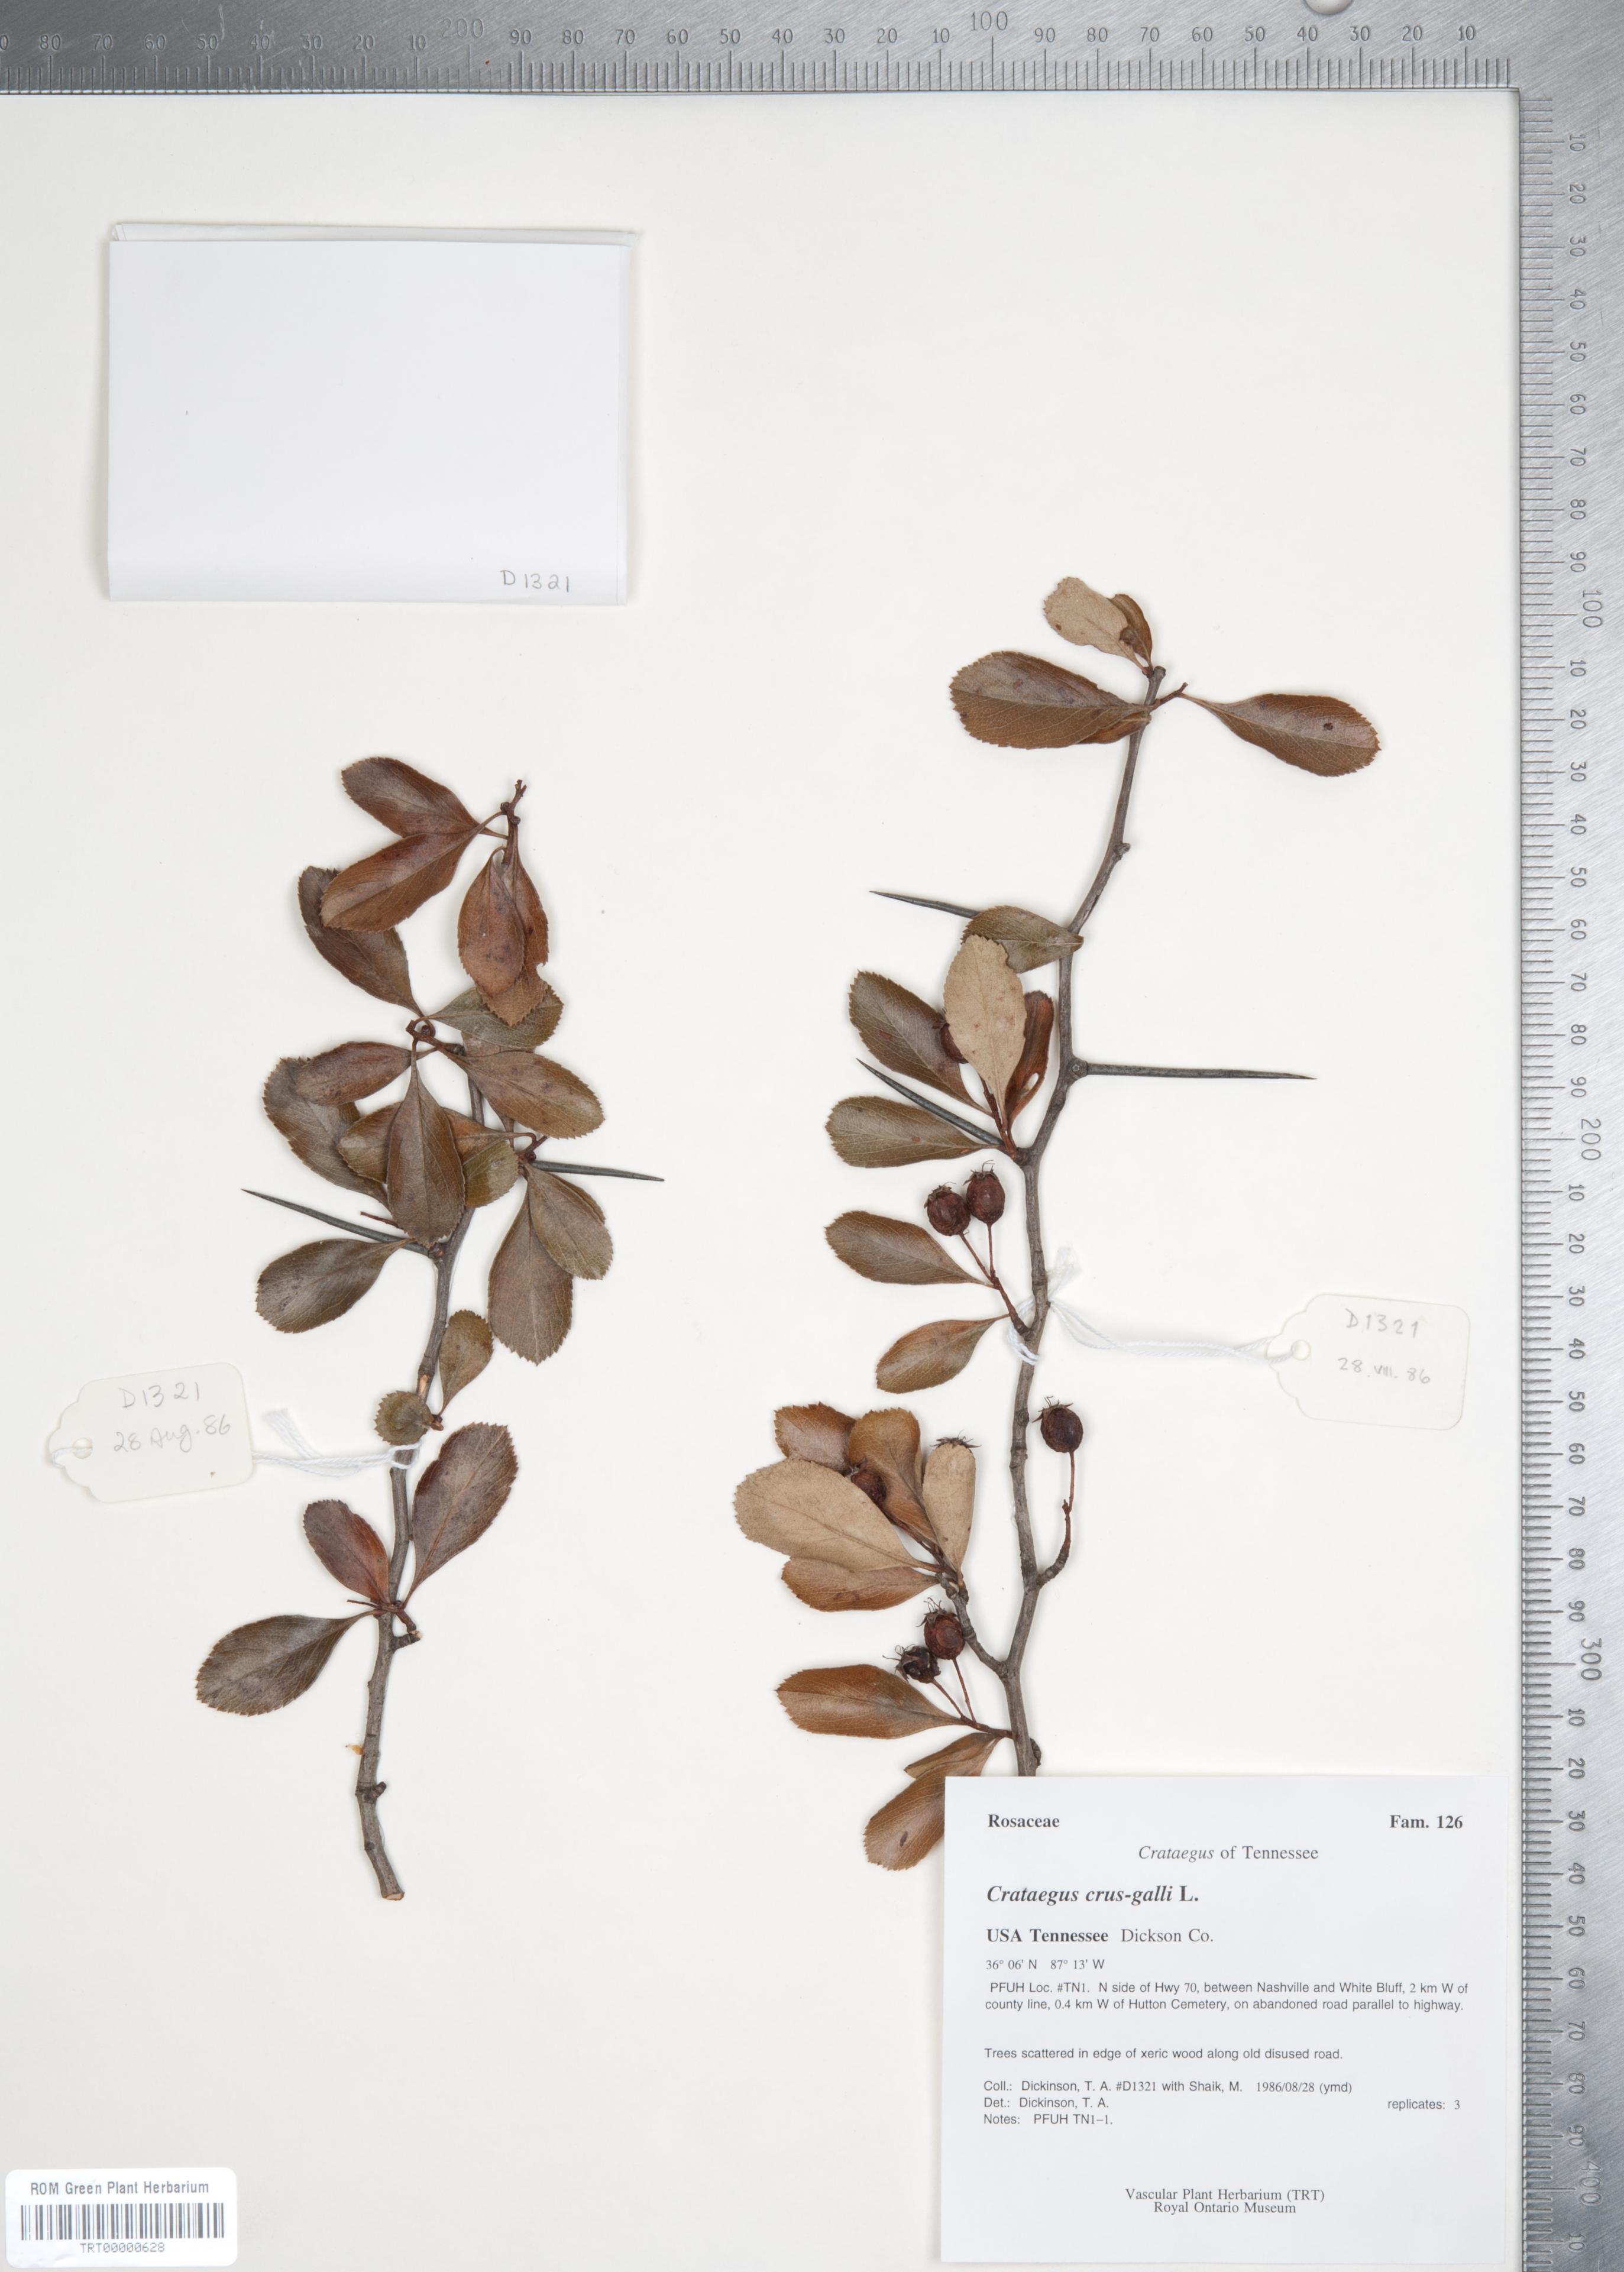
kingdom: Plantae
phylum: Tracheophyta
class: Magnoliopsida
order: Rosales
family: Rosaceae
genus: Crataegus
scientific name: Crataegus crus-galli
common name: Cockspurthorn
